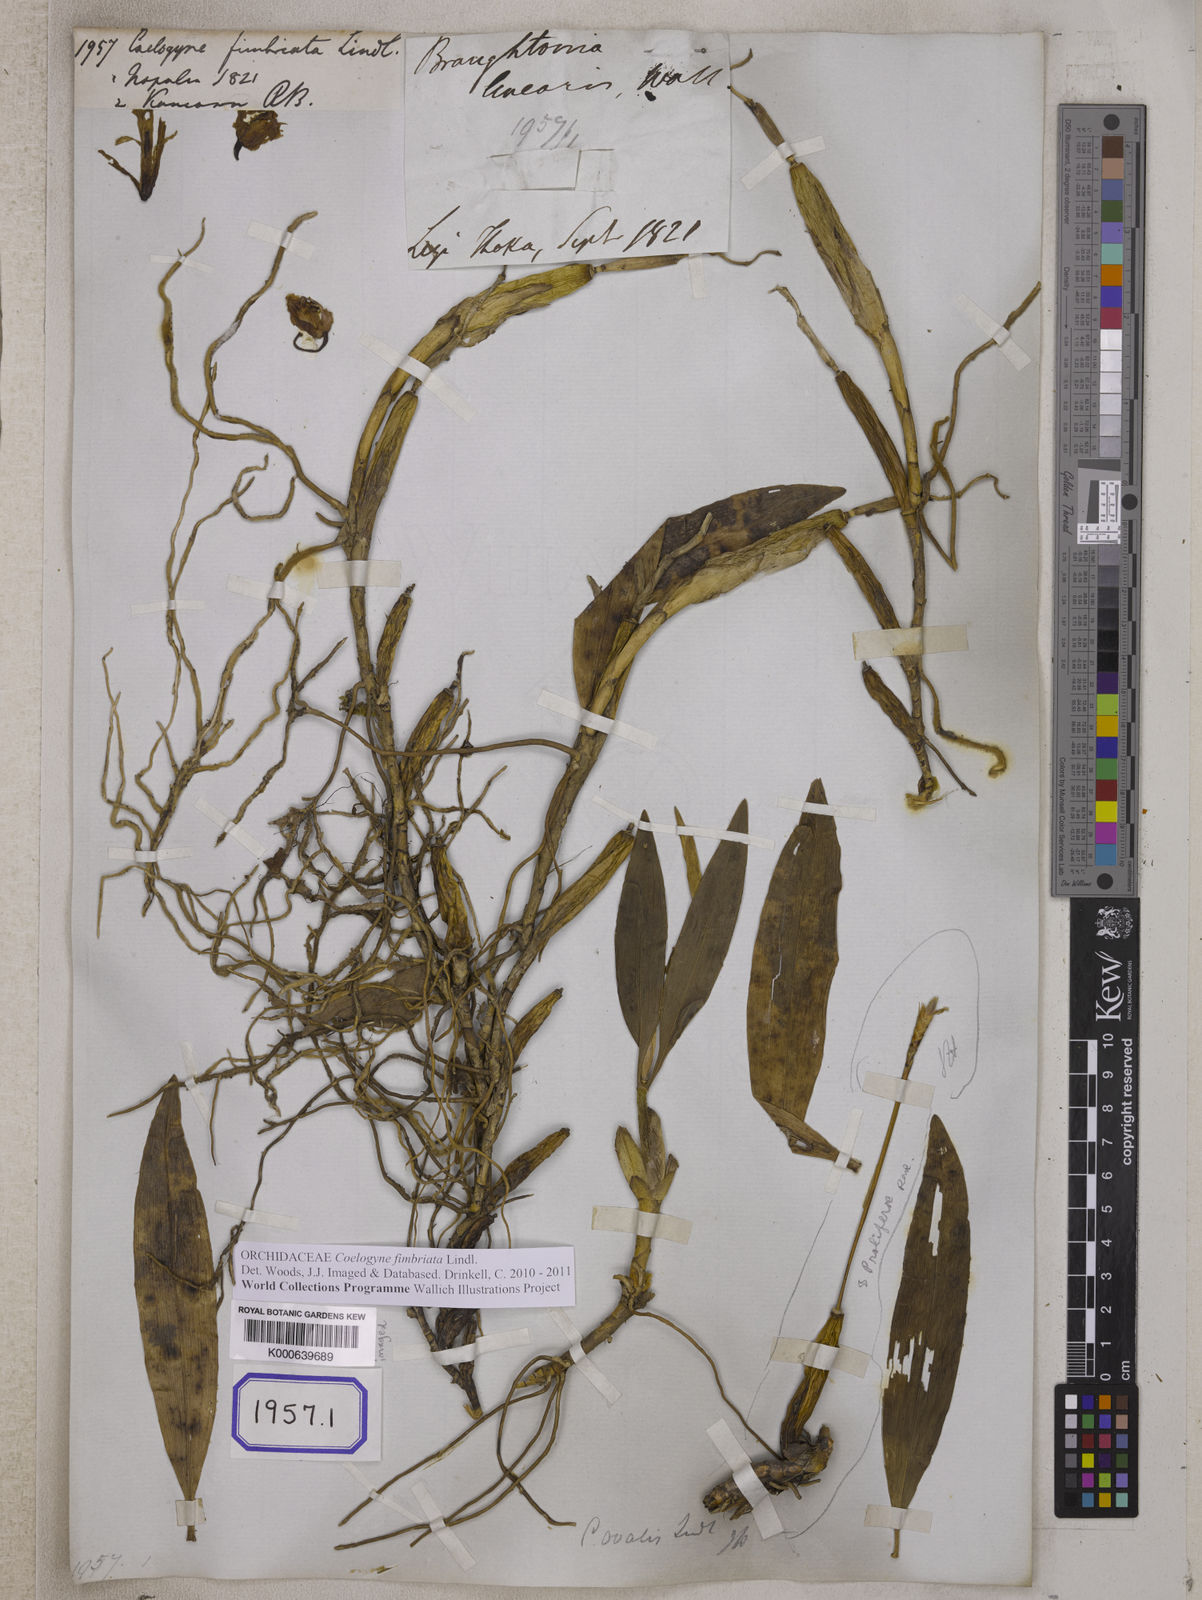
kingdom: Plantae
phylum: Tracheophyta
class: Liliopsida
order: Asparagales
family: Orchidaceae
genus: Coelogyne
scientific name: Coelogyne fimbriata
